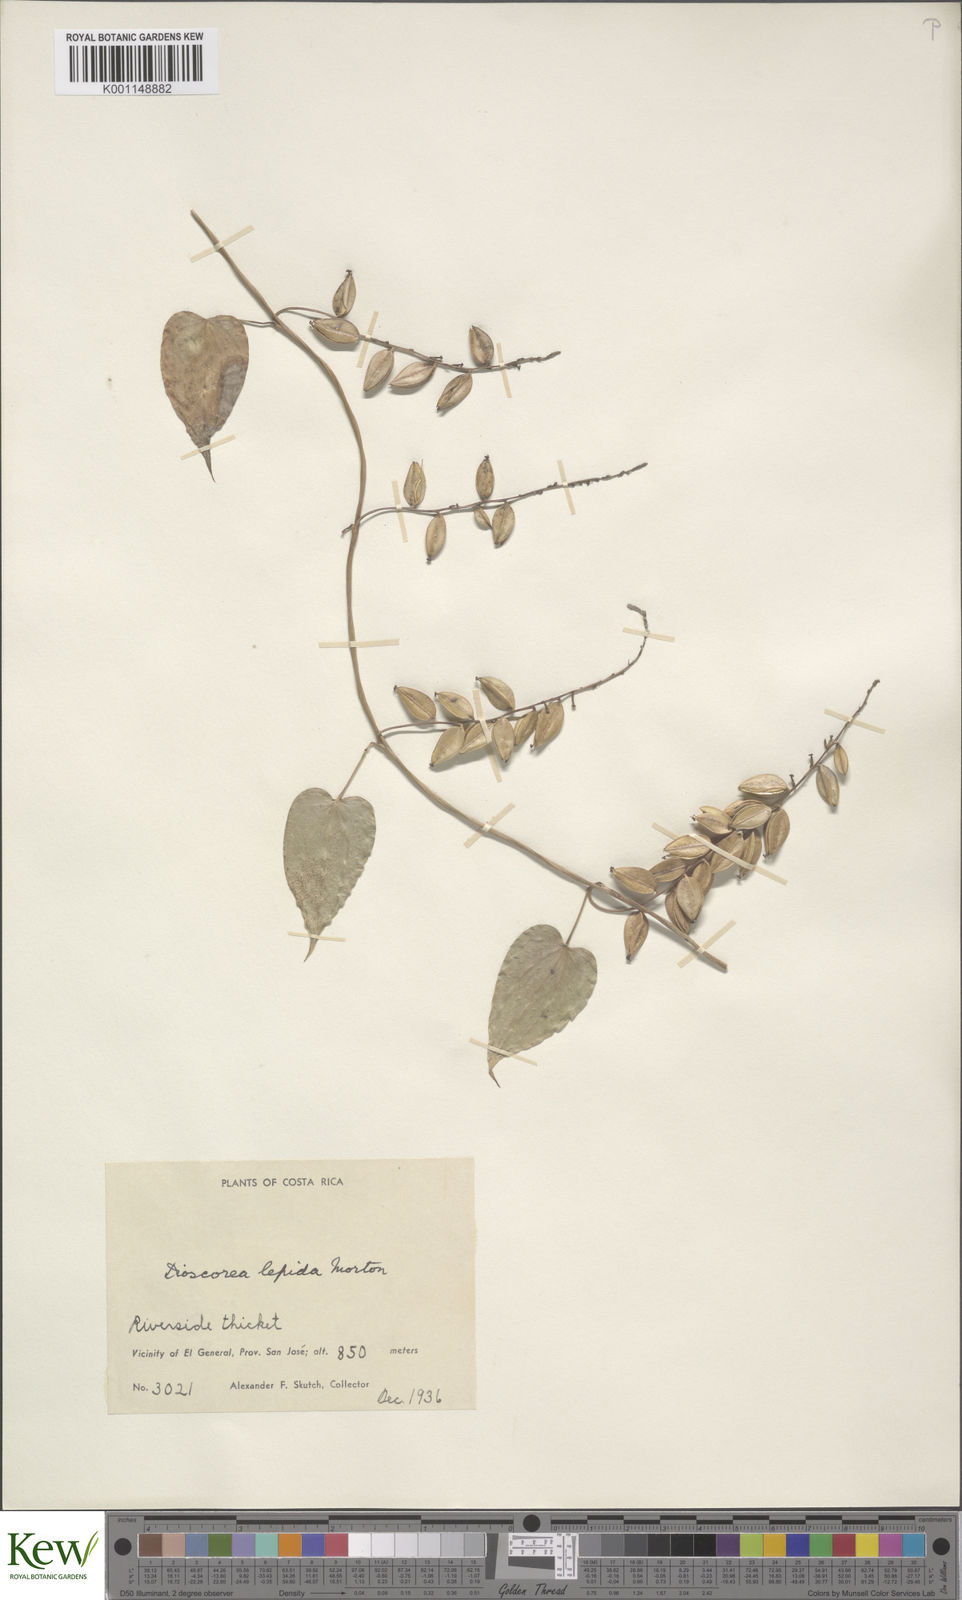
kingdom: Plantae
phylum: Tracheophyta
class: Liliopsida
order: Dioscoreales
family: Dioscoreaceae
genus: Dioscorea
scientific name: Dioscorea lepida
